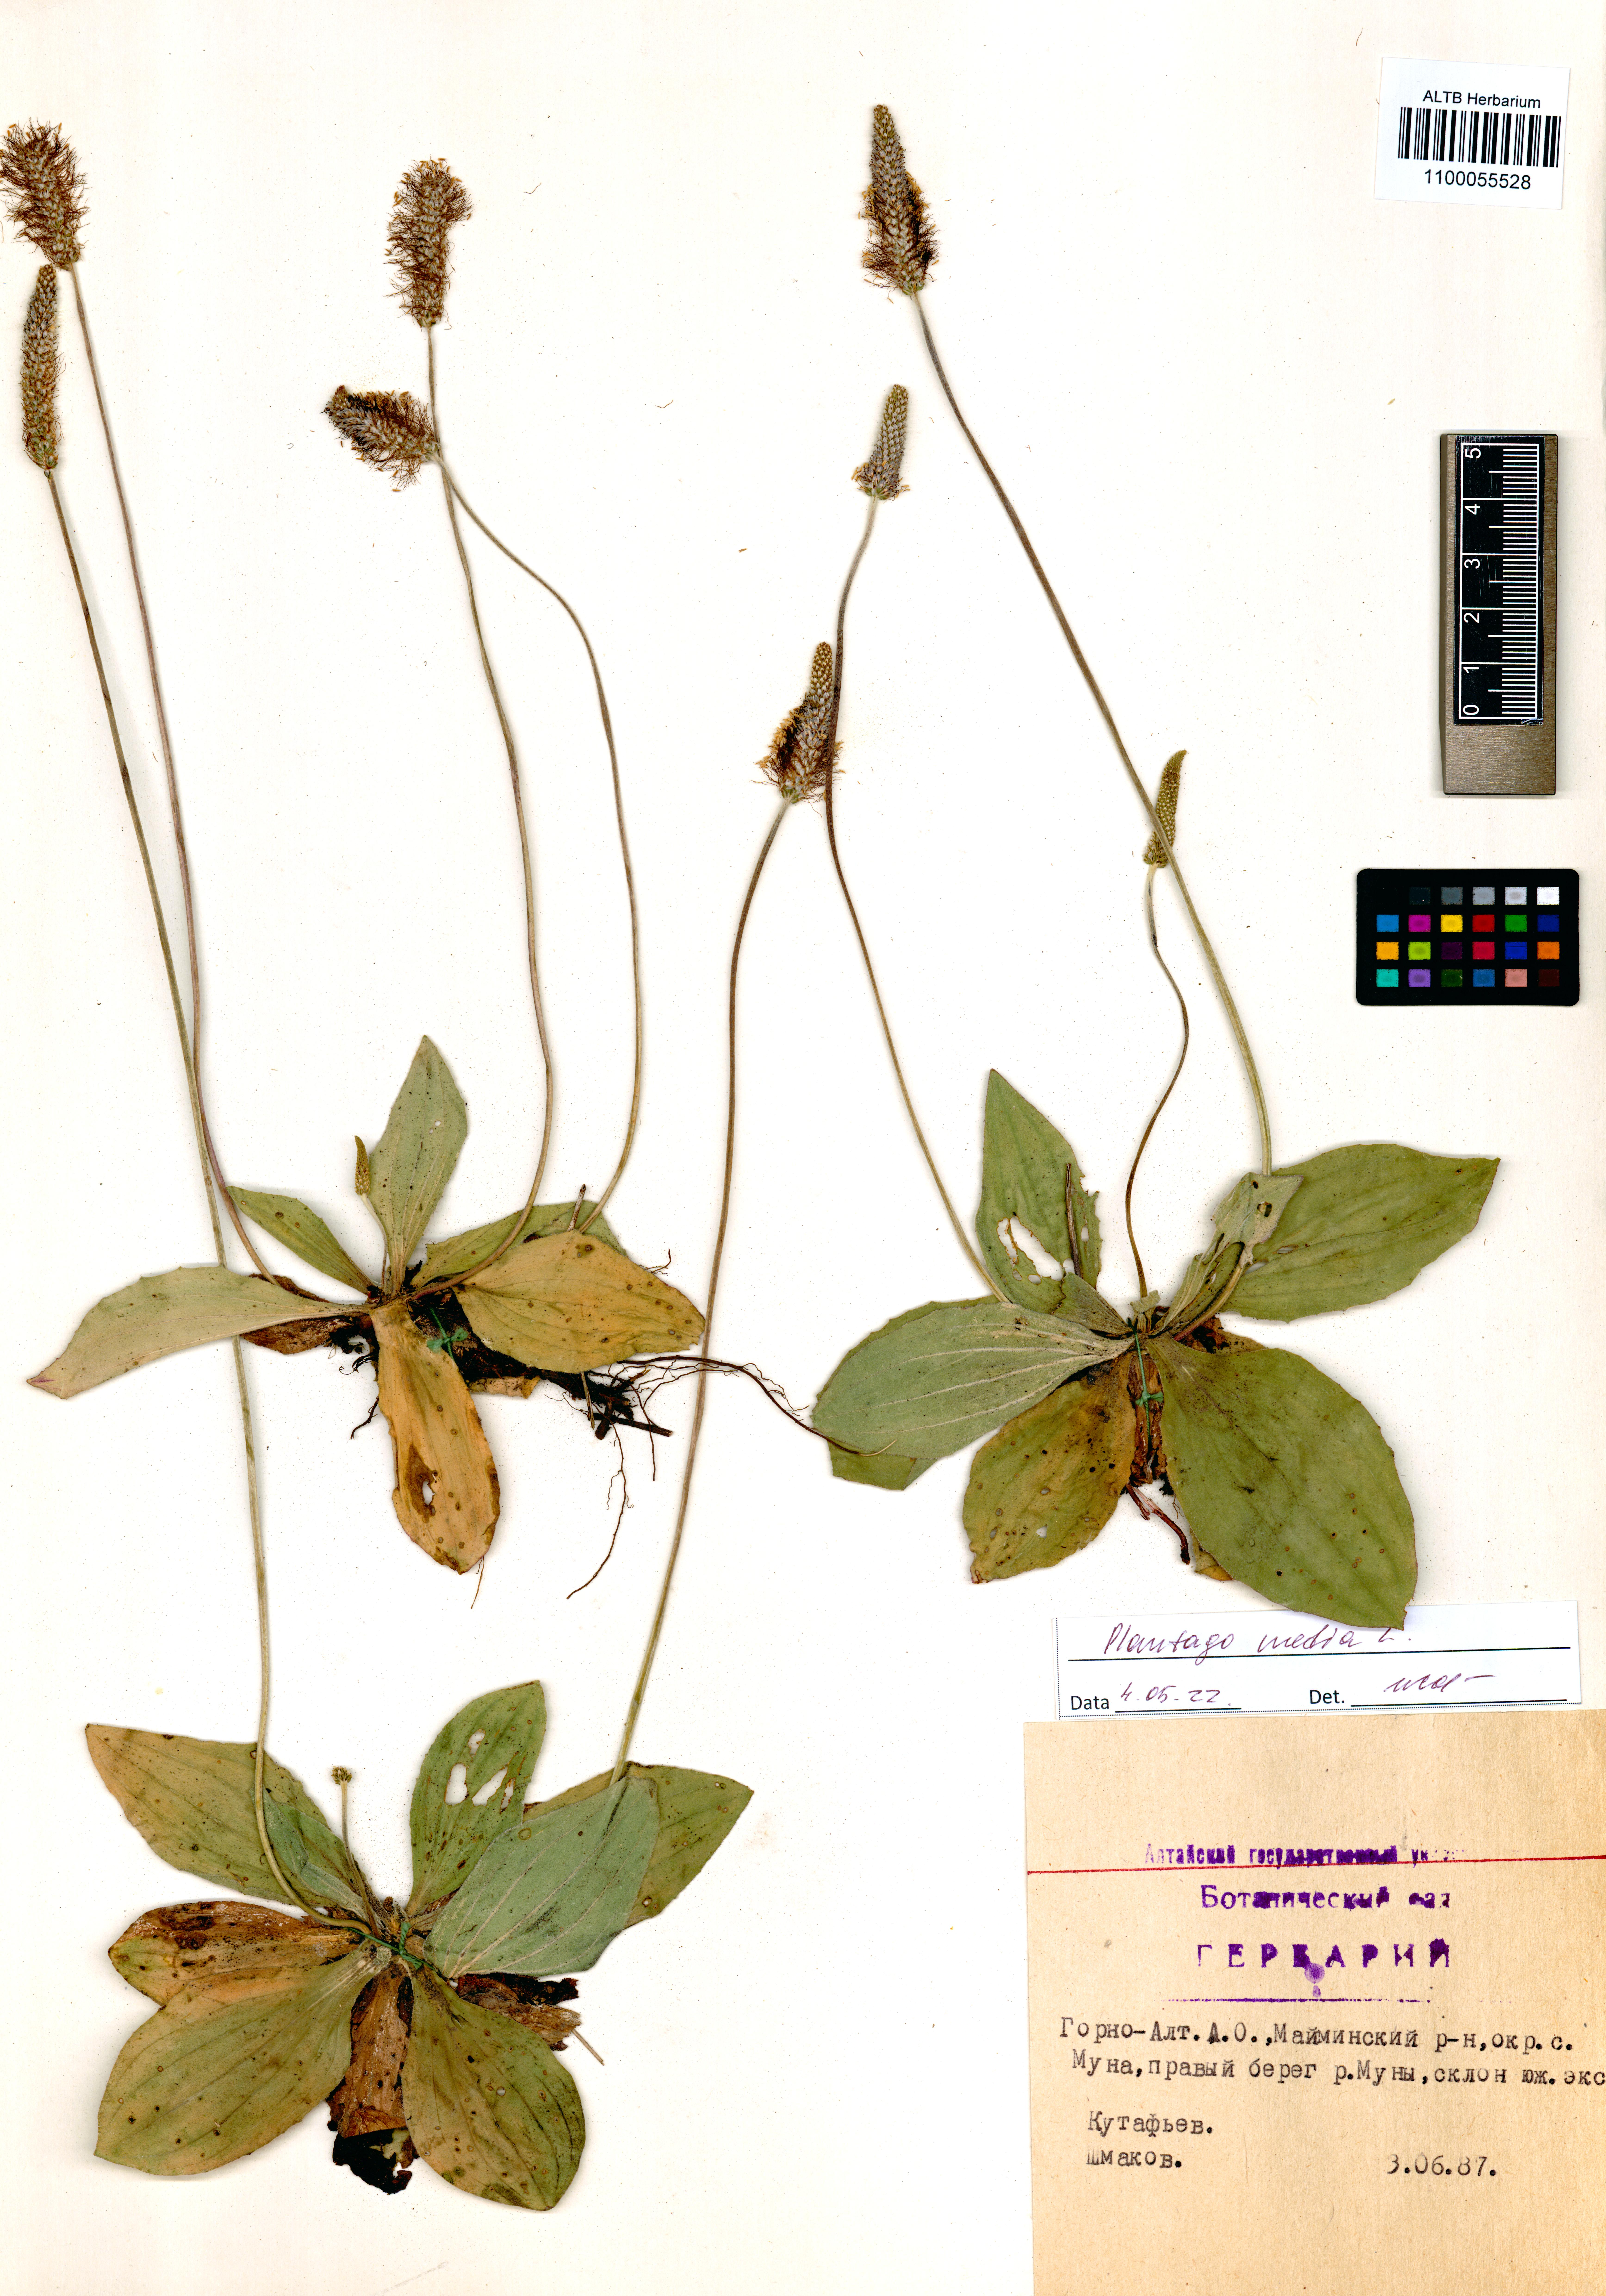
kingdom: Plantae
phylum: Tracheophyta
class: Magnoliopsida
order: Lamiales
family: Plantaginaceae
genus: Plantago
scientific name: Plantago media
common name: Hoary plantain
